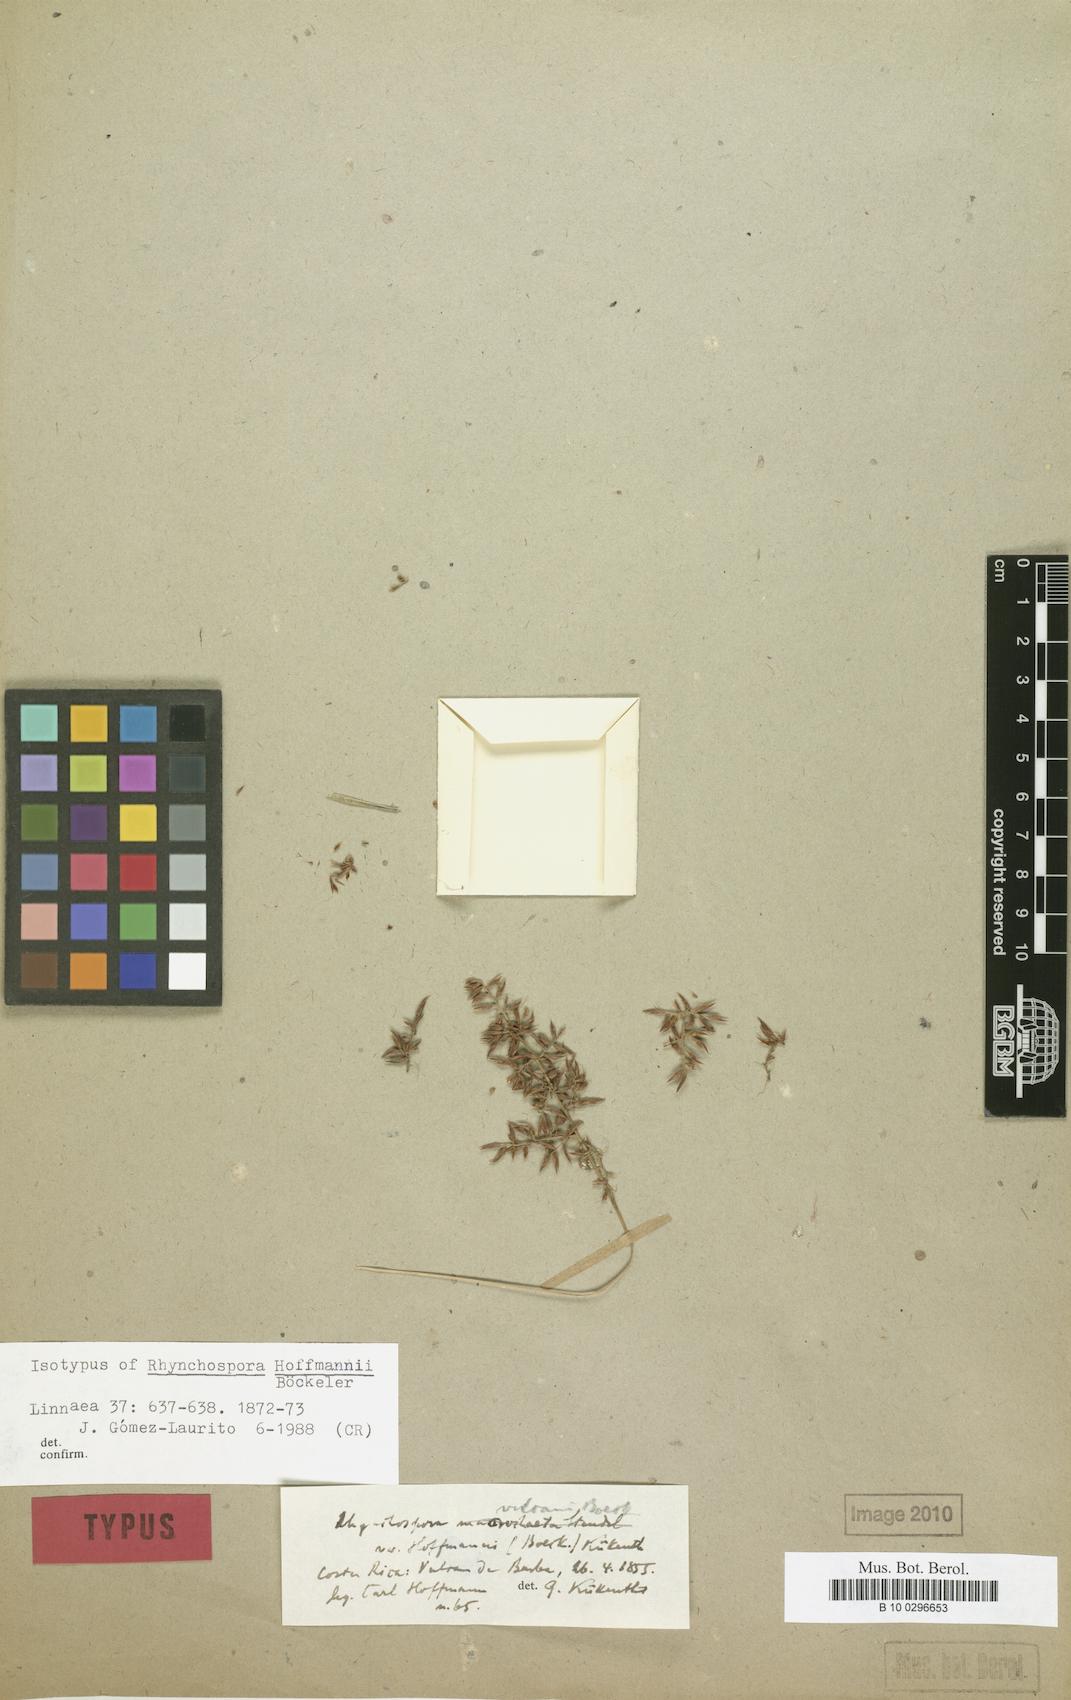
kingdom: Plantae
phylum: Tracheophyta
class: Liliopsida
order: Poales
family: Cyperaceae
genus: Rhynchospora
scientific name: Rhynchospora vulcani
